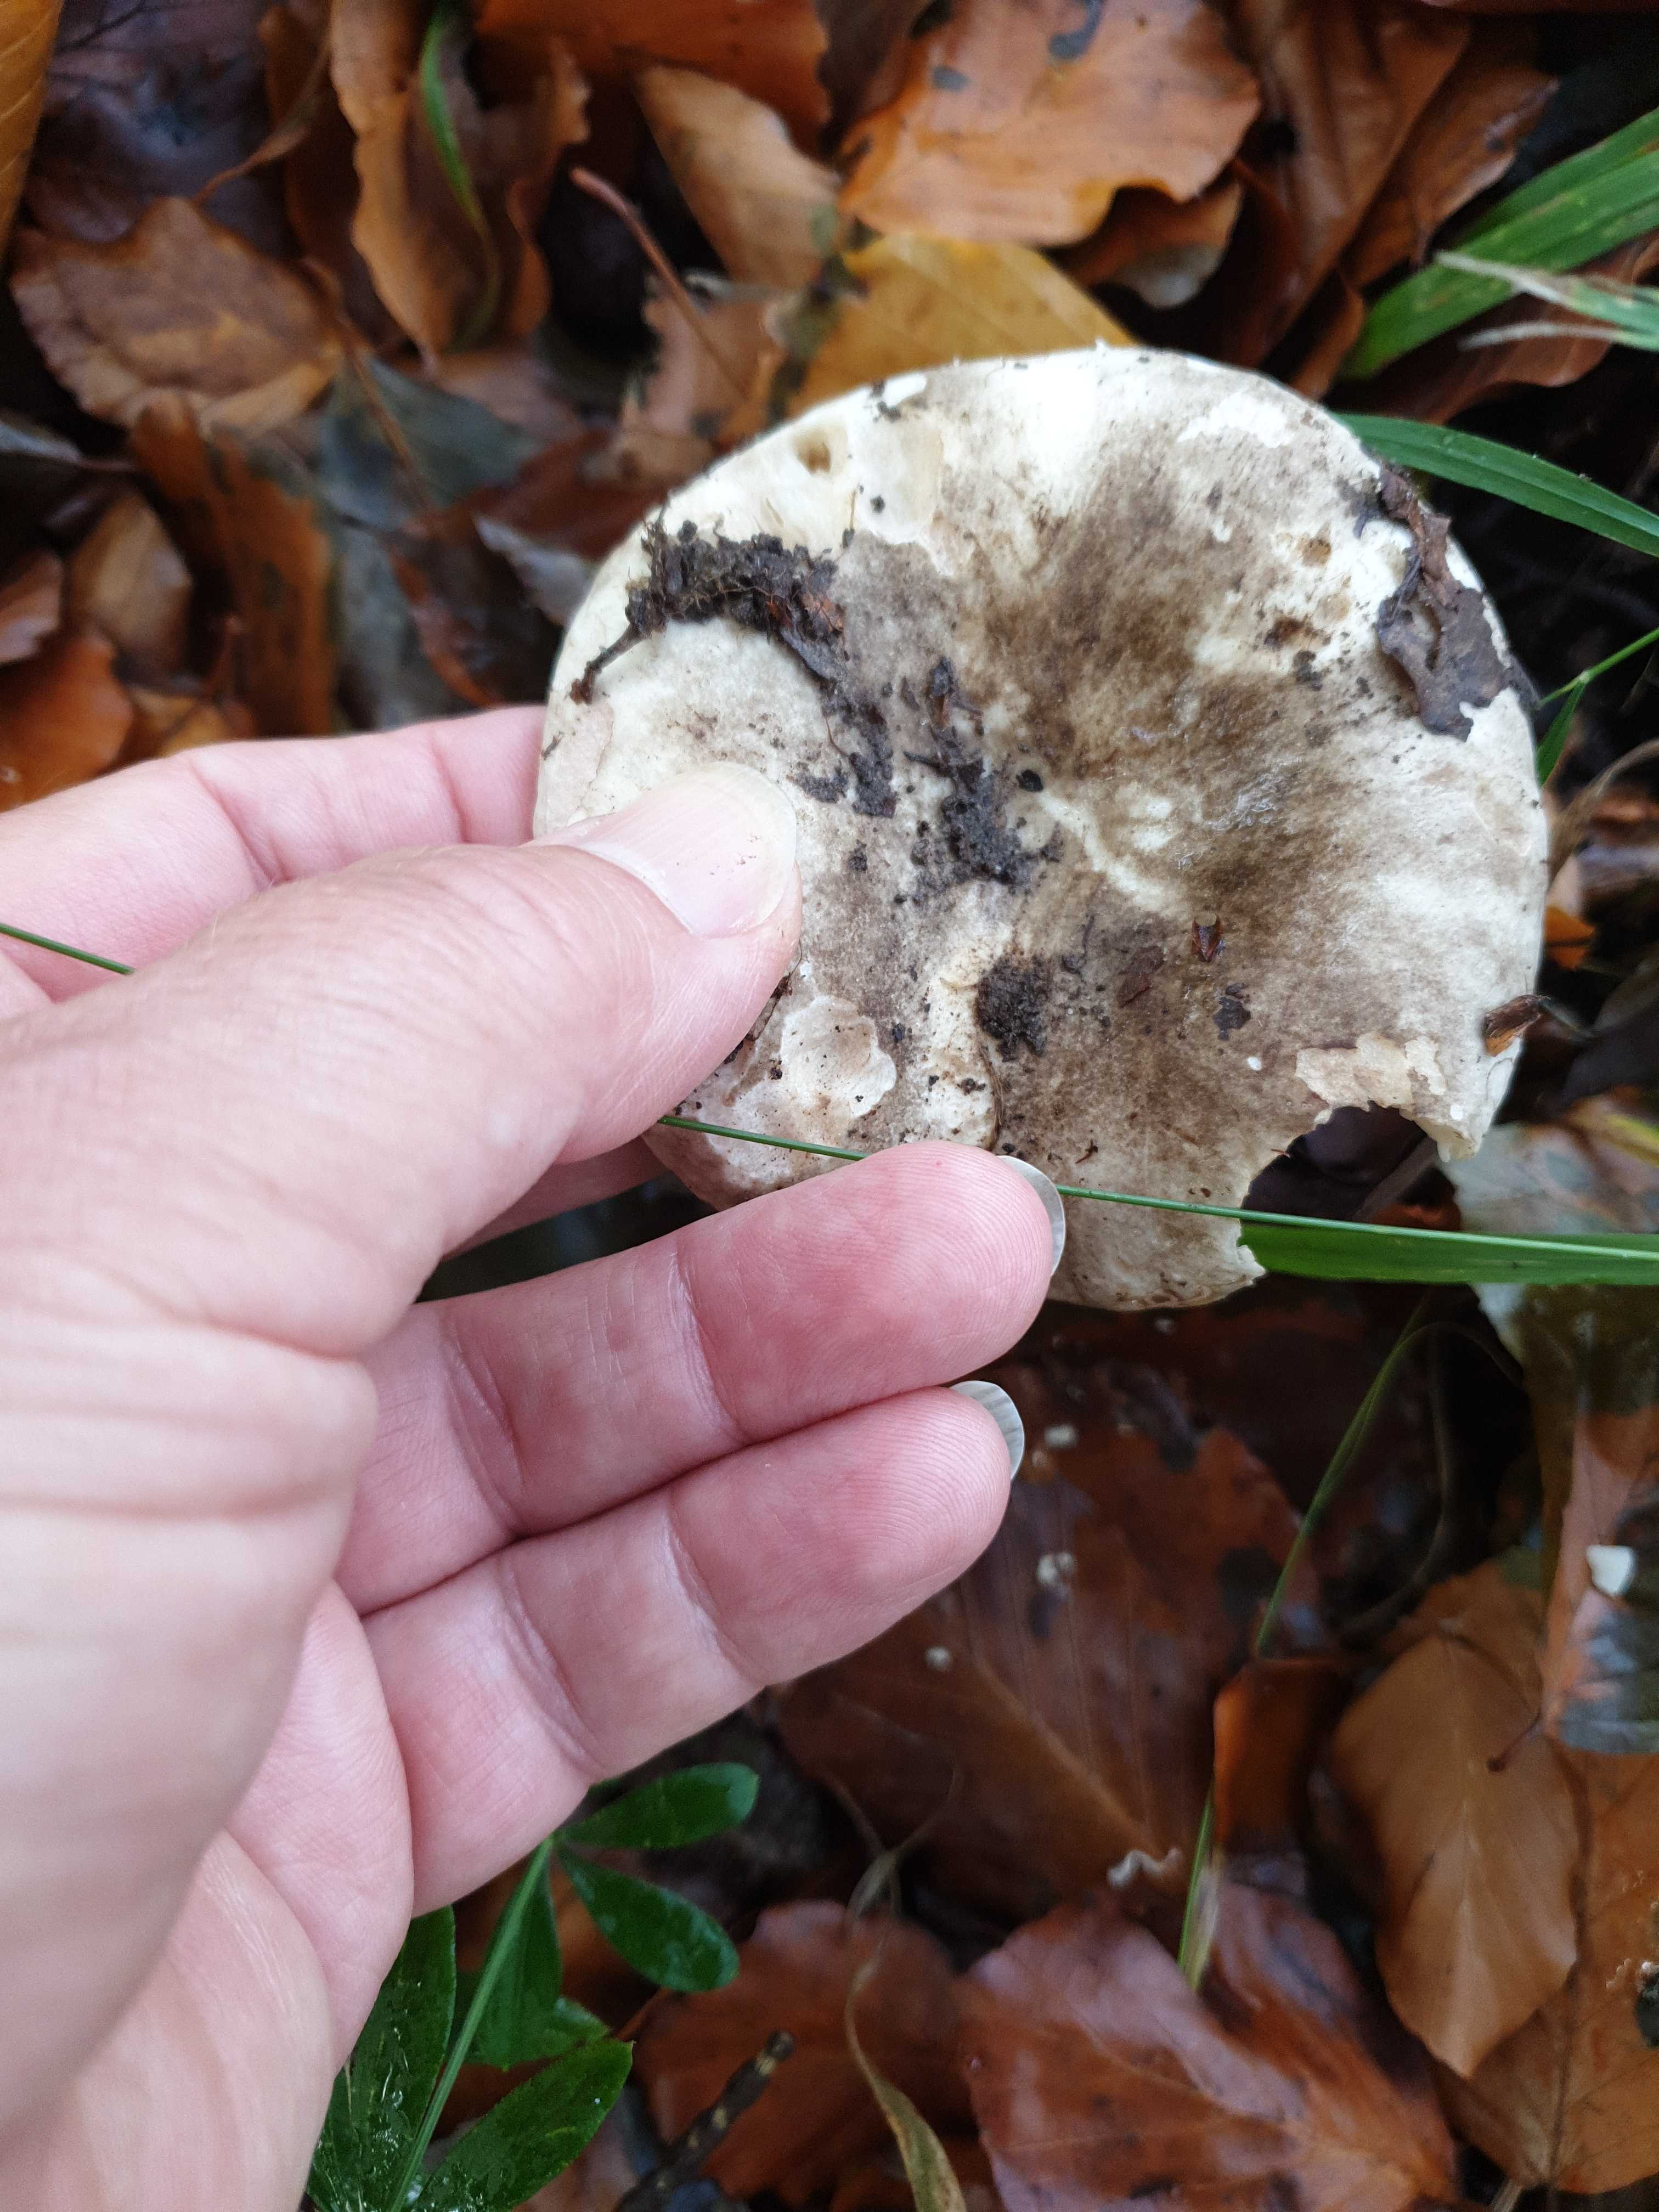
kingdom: Fungi
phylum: Basidiomycota
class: Agaricomycetes
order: Russulales
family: Russulaceae
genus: Russula
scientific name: Russula
